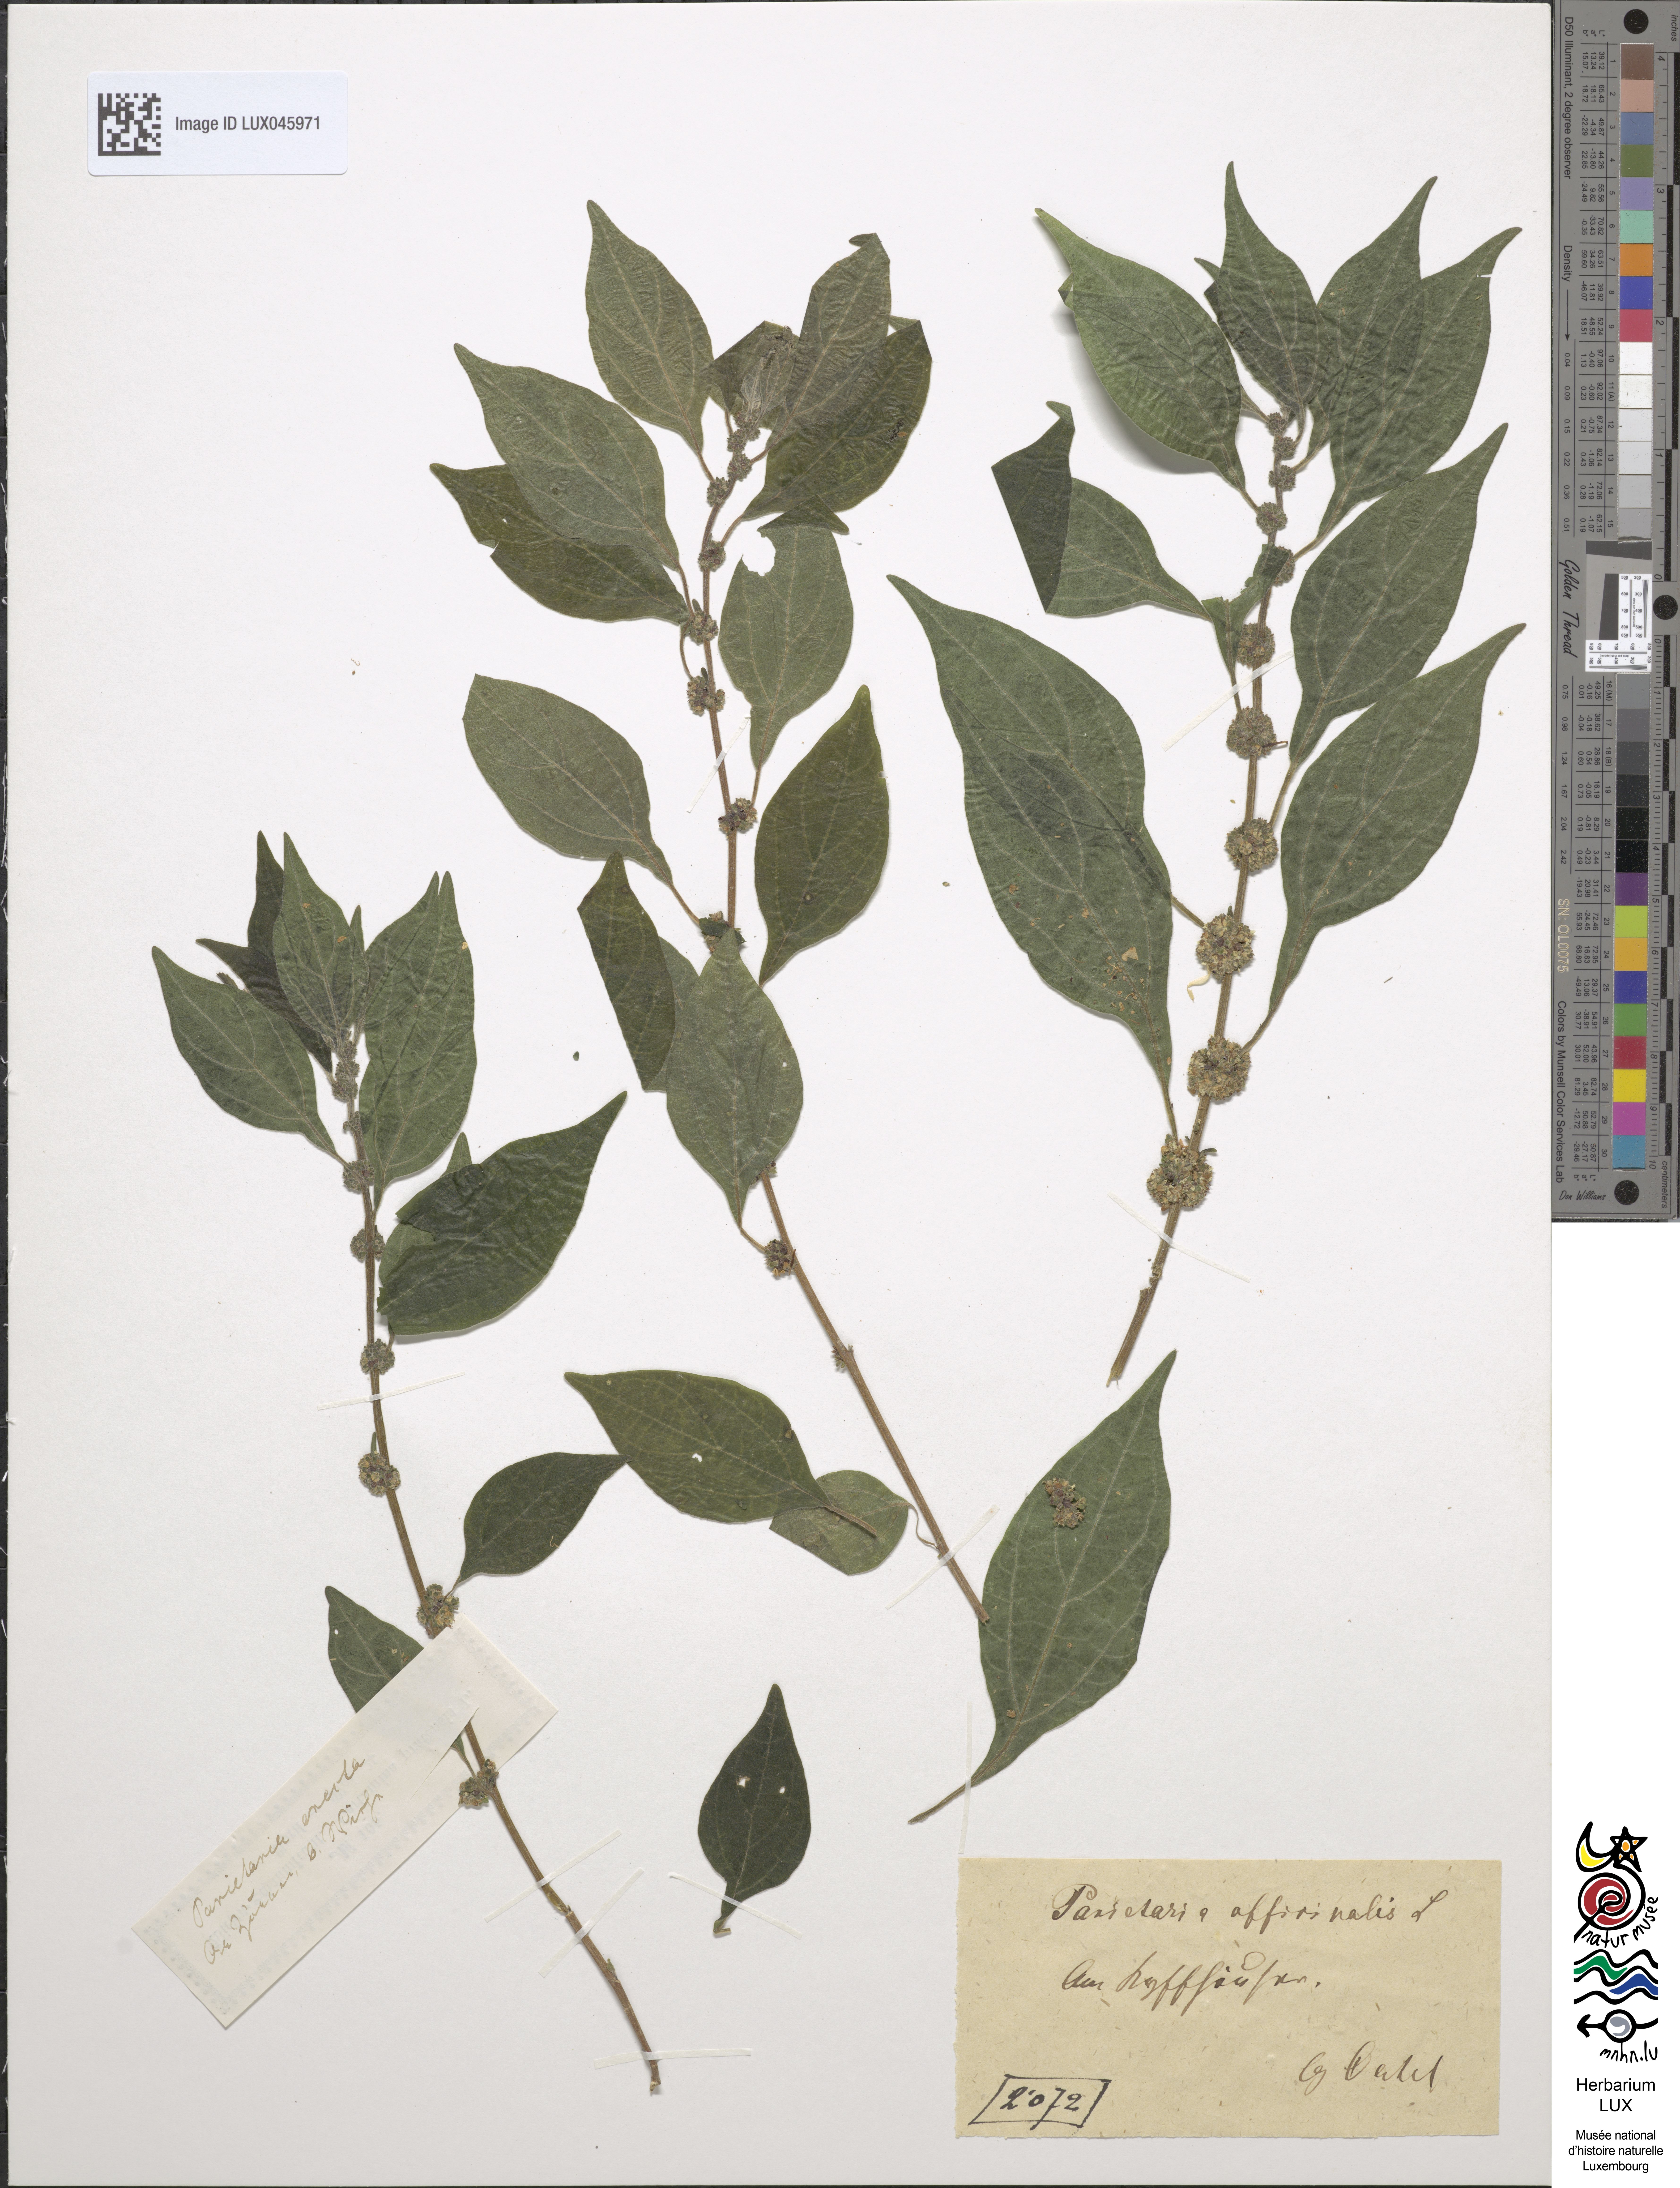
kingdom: Plantae
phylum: Tracheophyta
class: Magnoliopsida
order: Rosales
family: Urticaceae
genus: Parietaria
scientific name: Parietaria officinalis
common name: Eastern pellitory-of-the-wall
